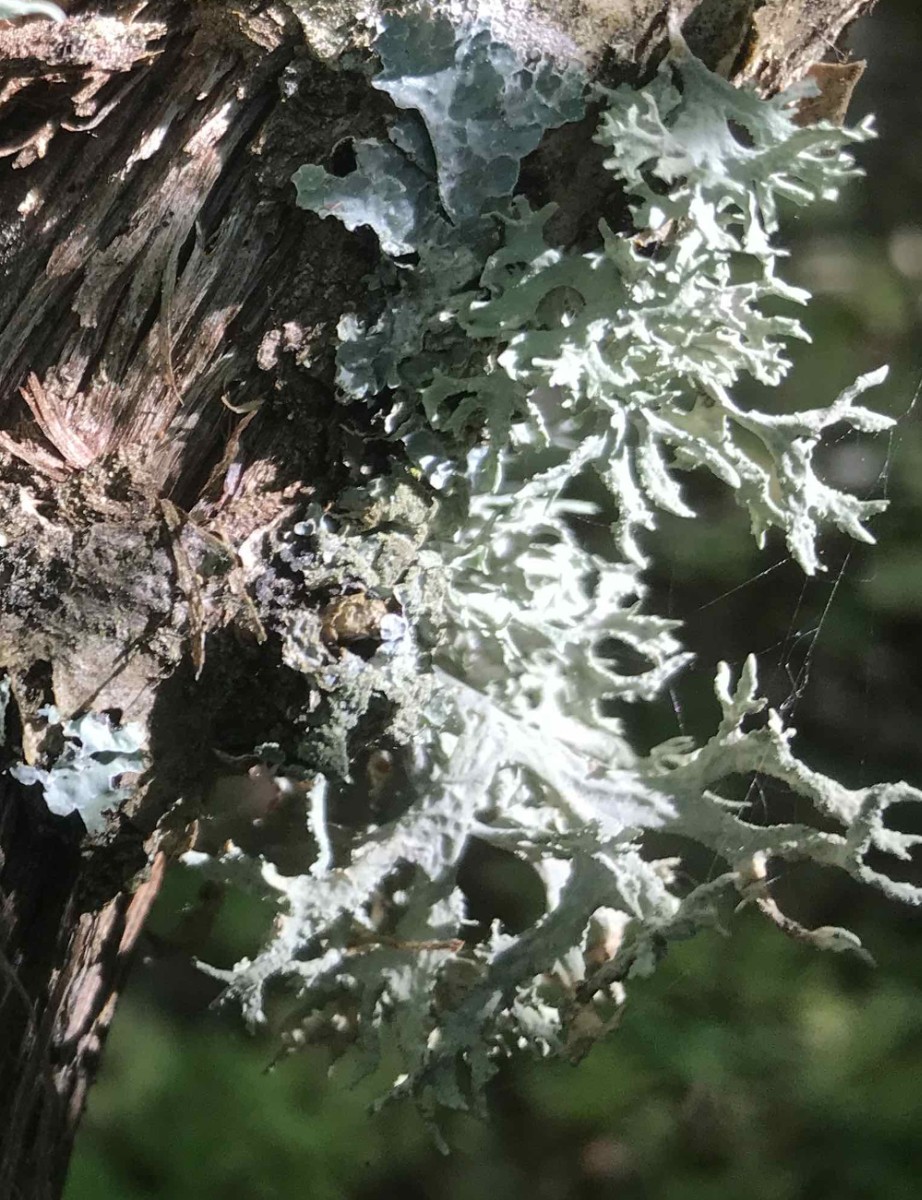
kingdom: Fungi
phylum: Ascomycota
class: Lecanoromycetes
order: Lecanorales
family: Parmeliaceae
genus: Evernia
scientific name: Evernia prunastri
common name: almindelig slåenlav
